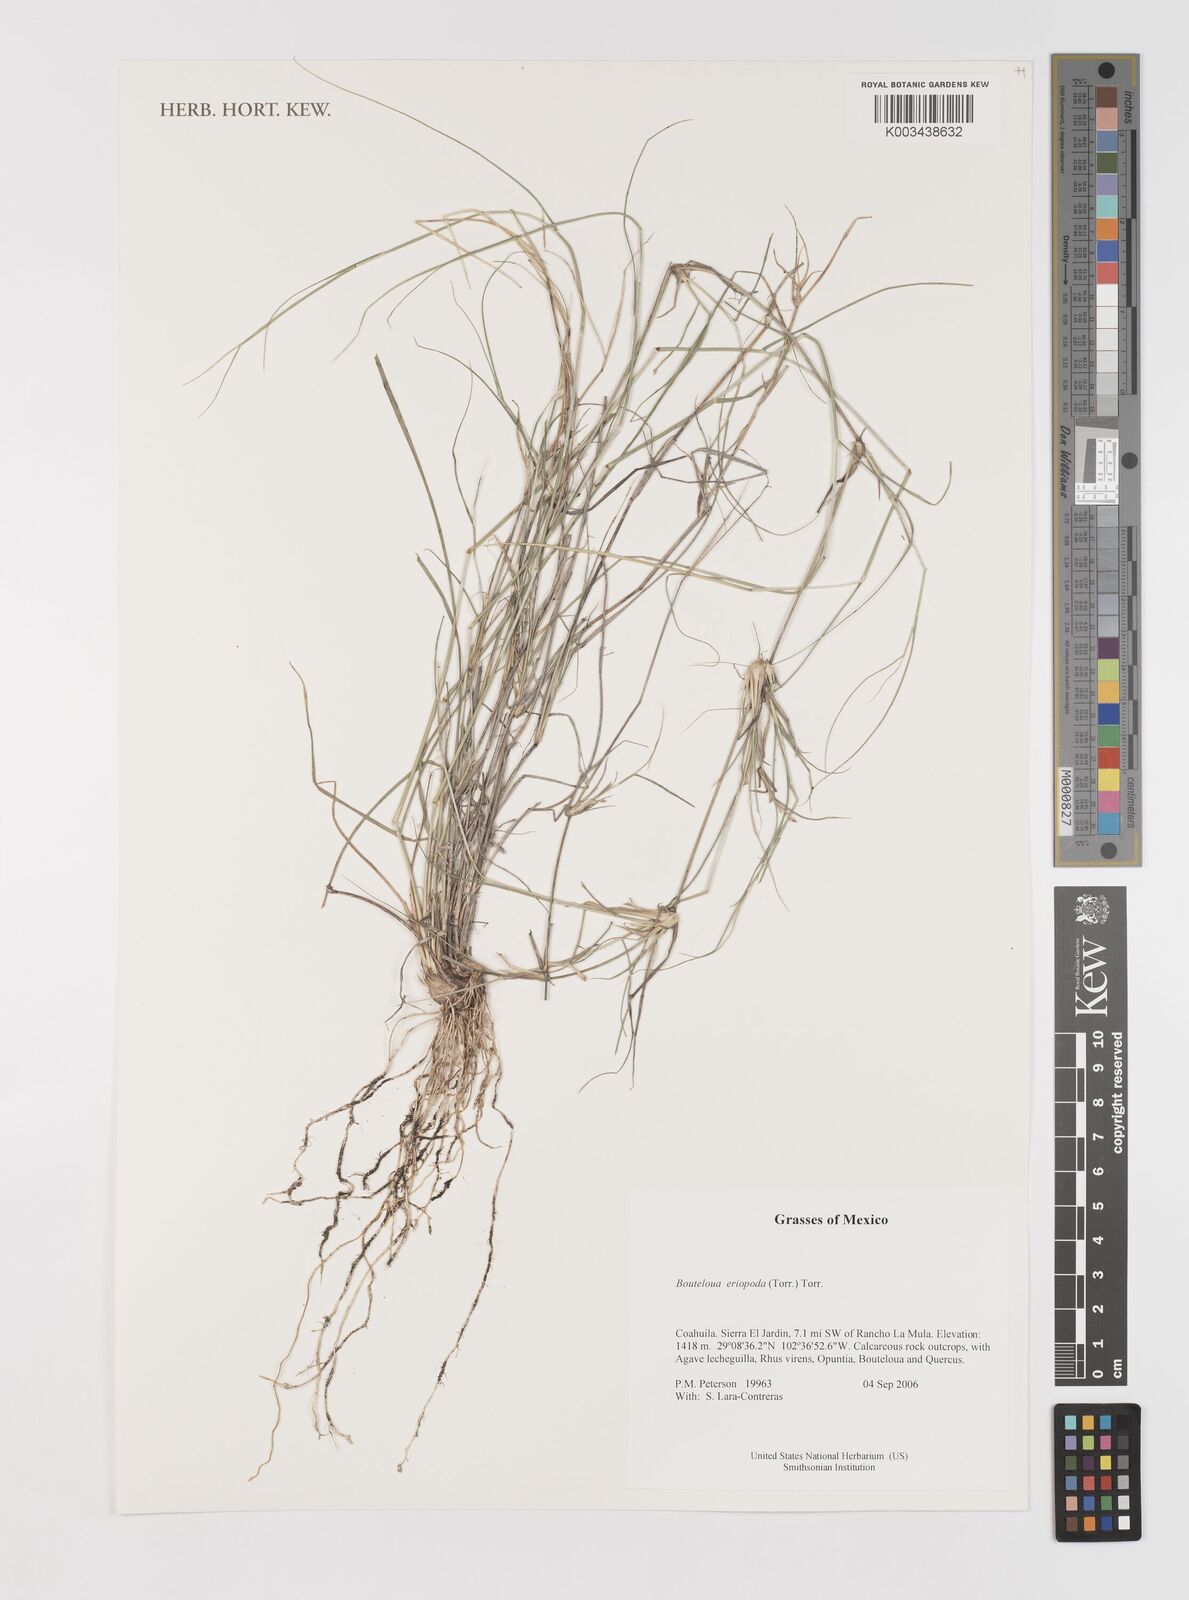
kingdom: Plantae
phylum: Tracheophyta
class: Liliopsida
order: Poales
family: Poaceae
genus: Bouteloua
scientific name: Bouteloua eriopoda
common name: Woolly foot grama
